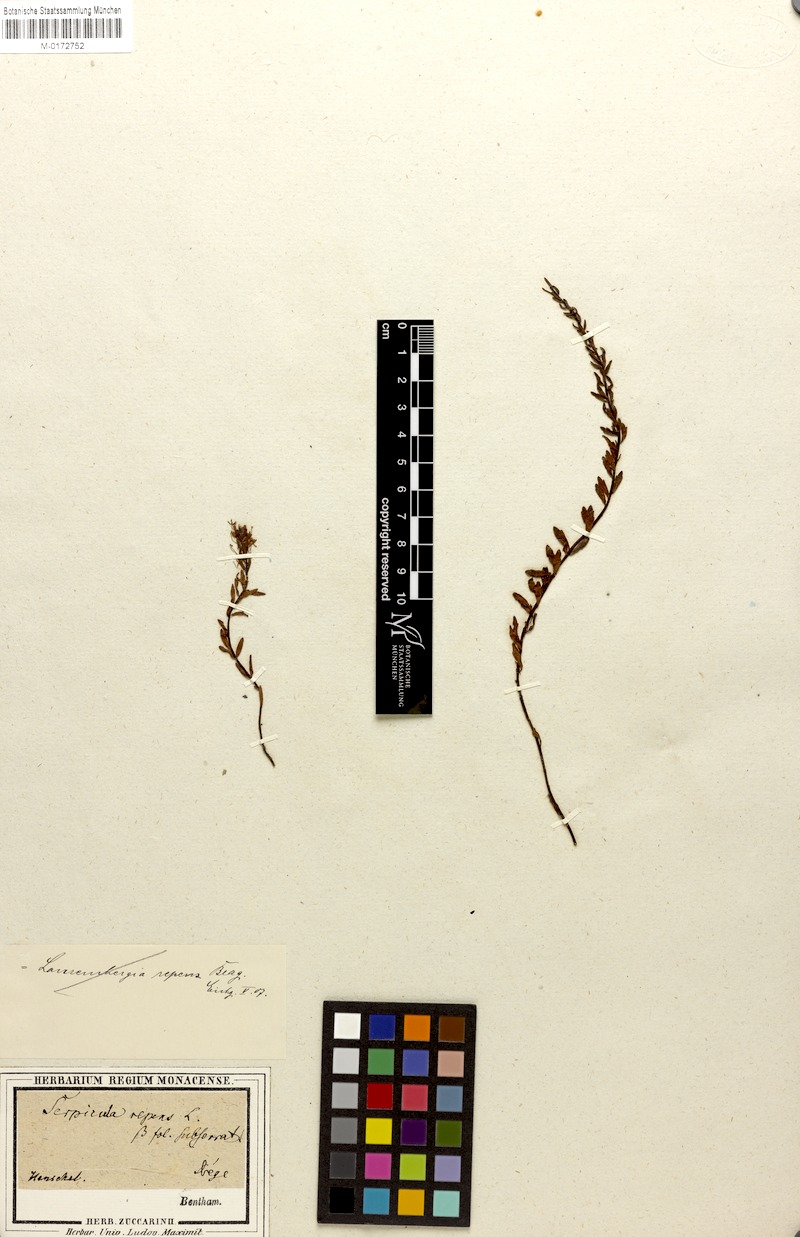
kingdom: Plantae
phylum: Tracheophyta
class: Magnoliopsida
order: Saxifragales
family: Haloragaceae
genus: Laurembergia
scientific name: Laurembergia repens
